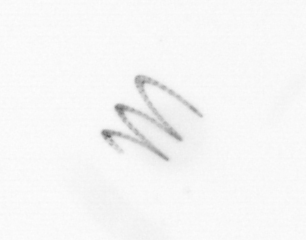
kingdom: Chromista
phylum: Ochrophyta
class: Bacillariophyceae
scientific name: Bacillariophyceae
